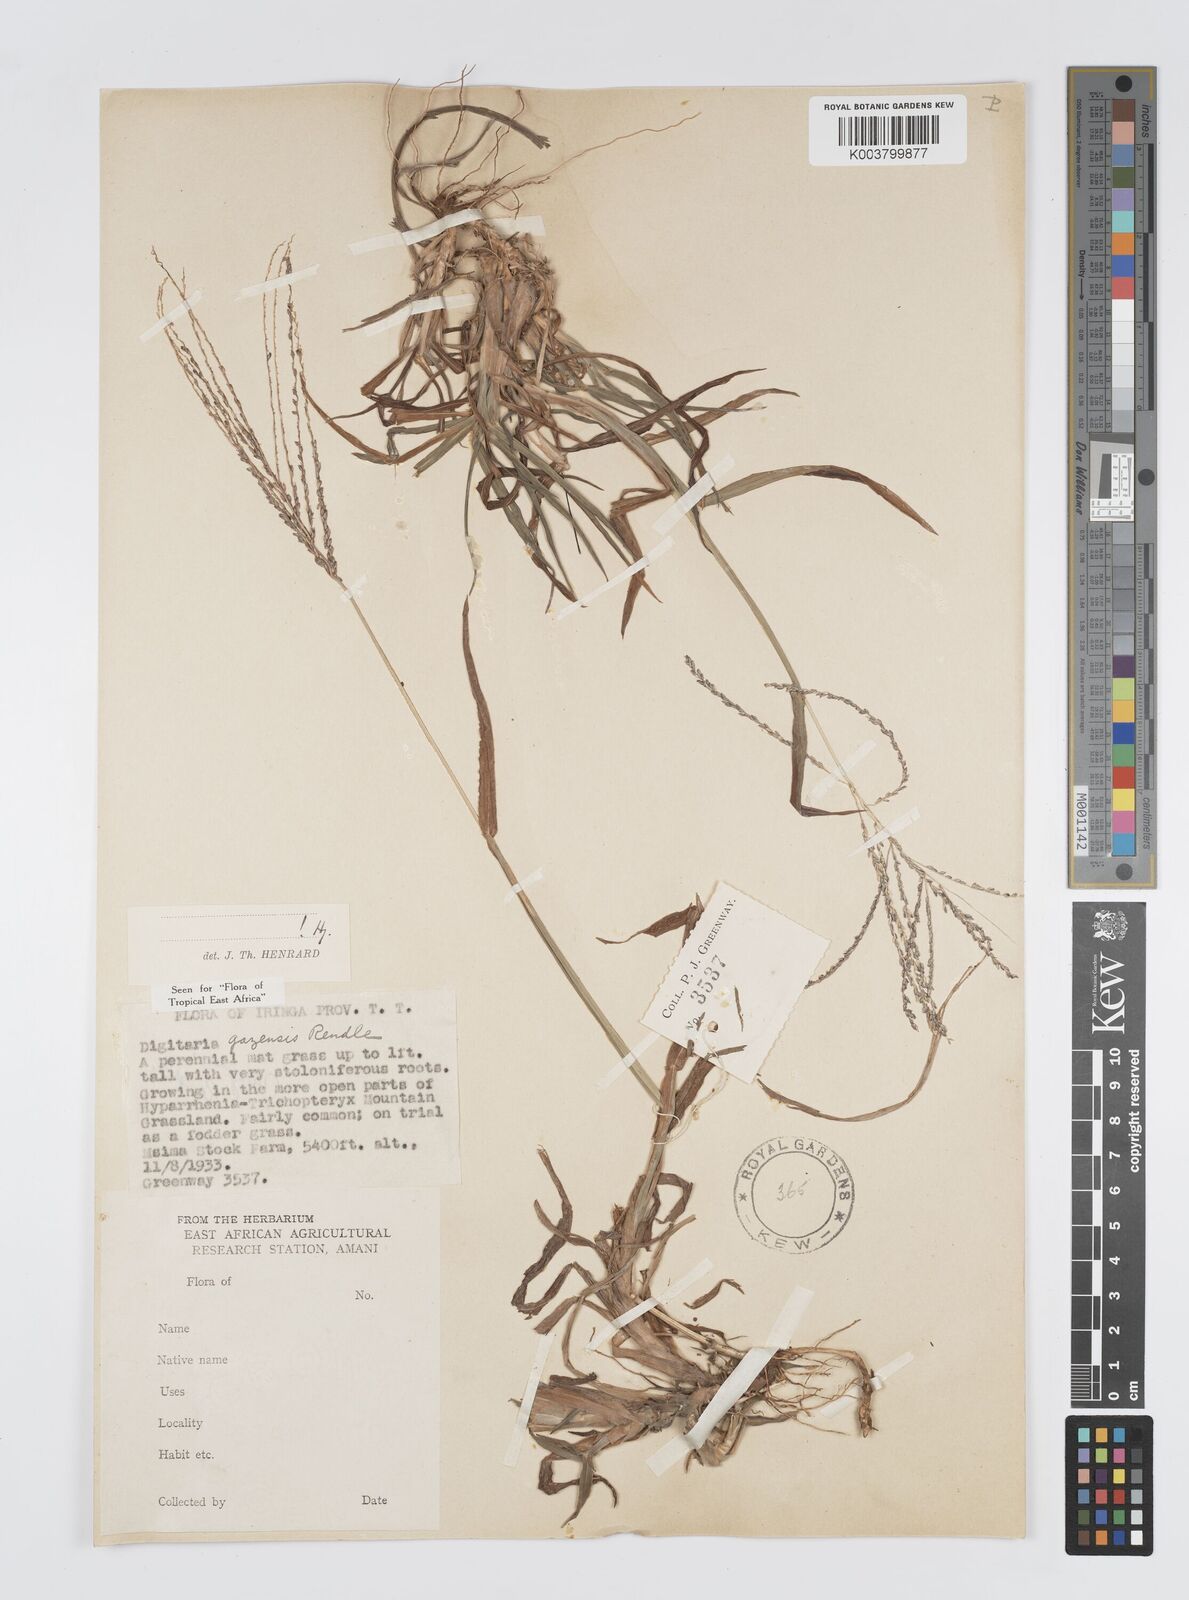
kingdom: Plantae
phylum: Tracheophyta
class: Liliopsida
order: Poales
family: Poaceae
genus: Digitaria
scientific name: Digitaria gazensis
